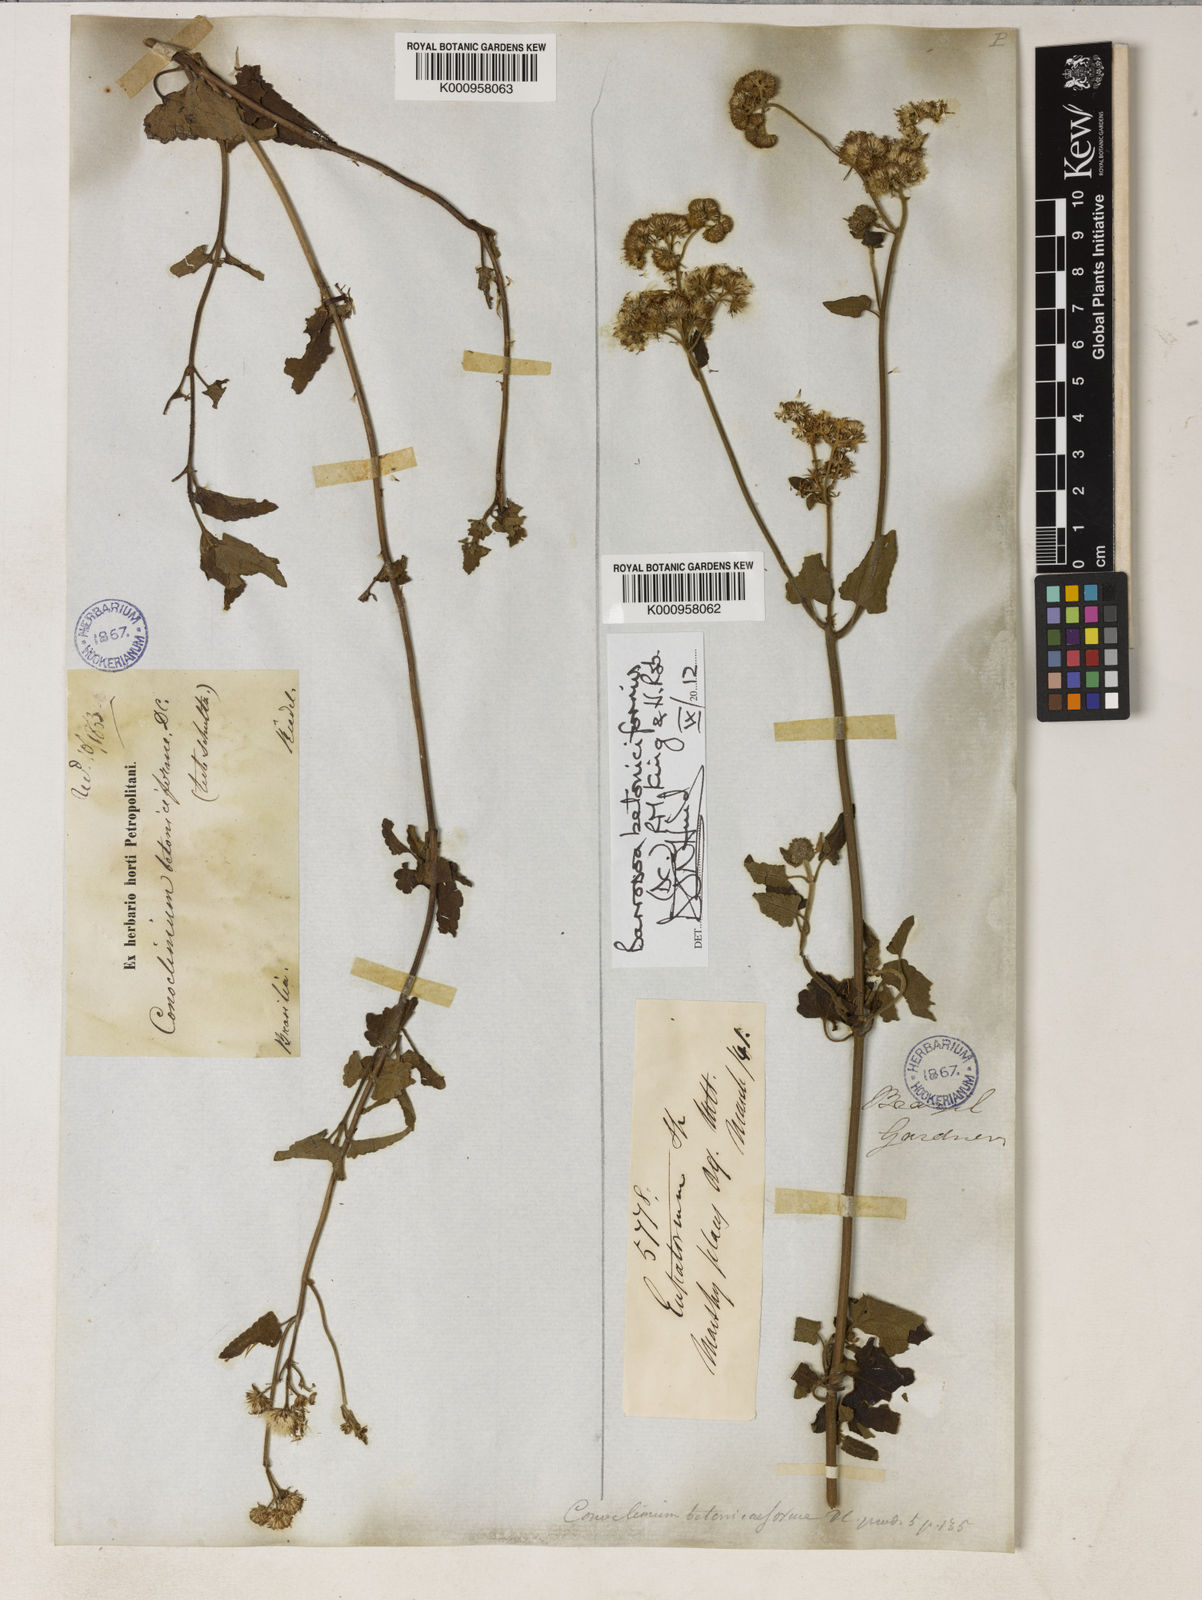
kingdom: Plantae
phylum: Tracheophyta
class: Magnoliopsida
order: Asterales
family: Asteraceae
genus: Barrosoa
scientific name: Barrosoa betoniciformis
